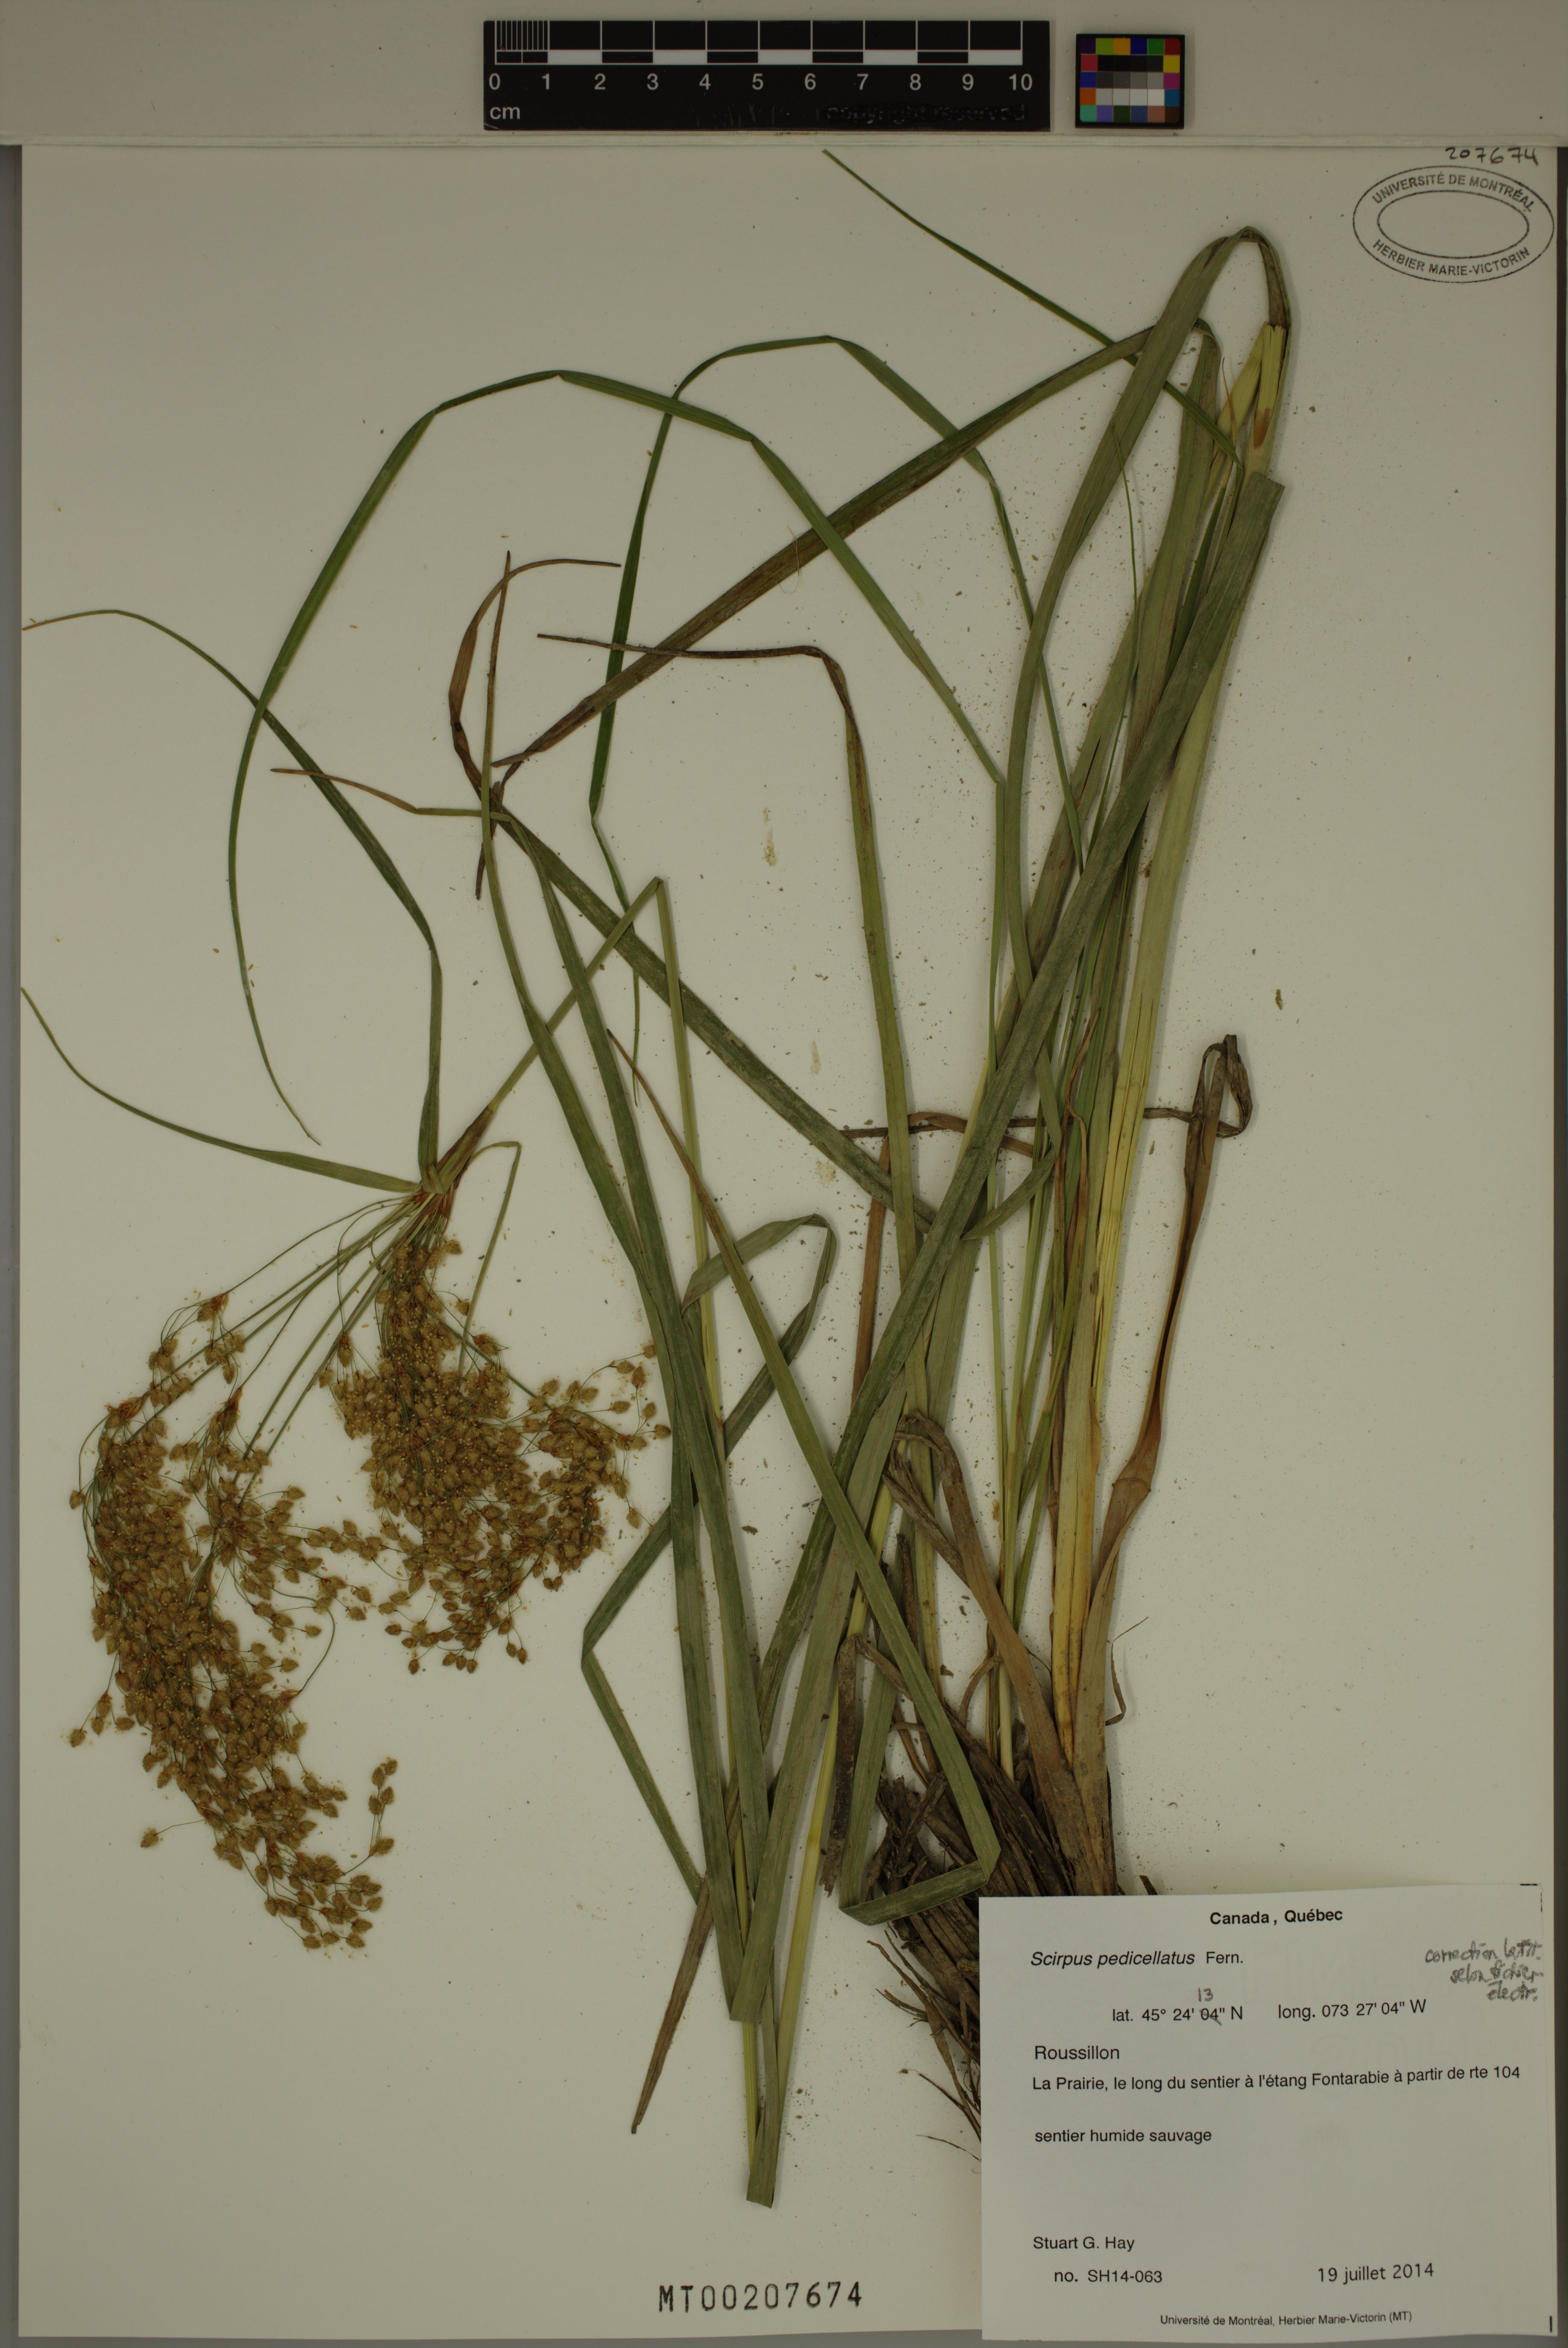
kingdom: Plantae
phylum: Tracheophyta
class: Liliopsida
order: Poales
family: Cyperaceae
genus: Scirpus
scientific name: Scirpus pedicellatus
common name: Pedicelled bulrush
